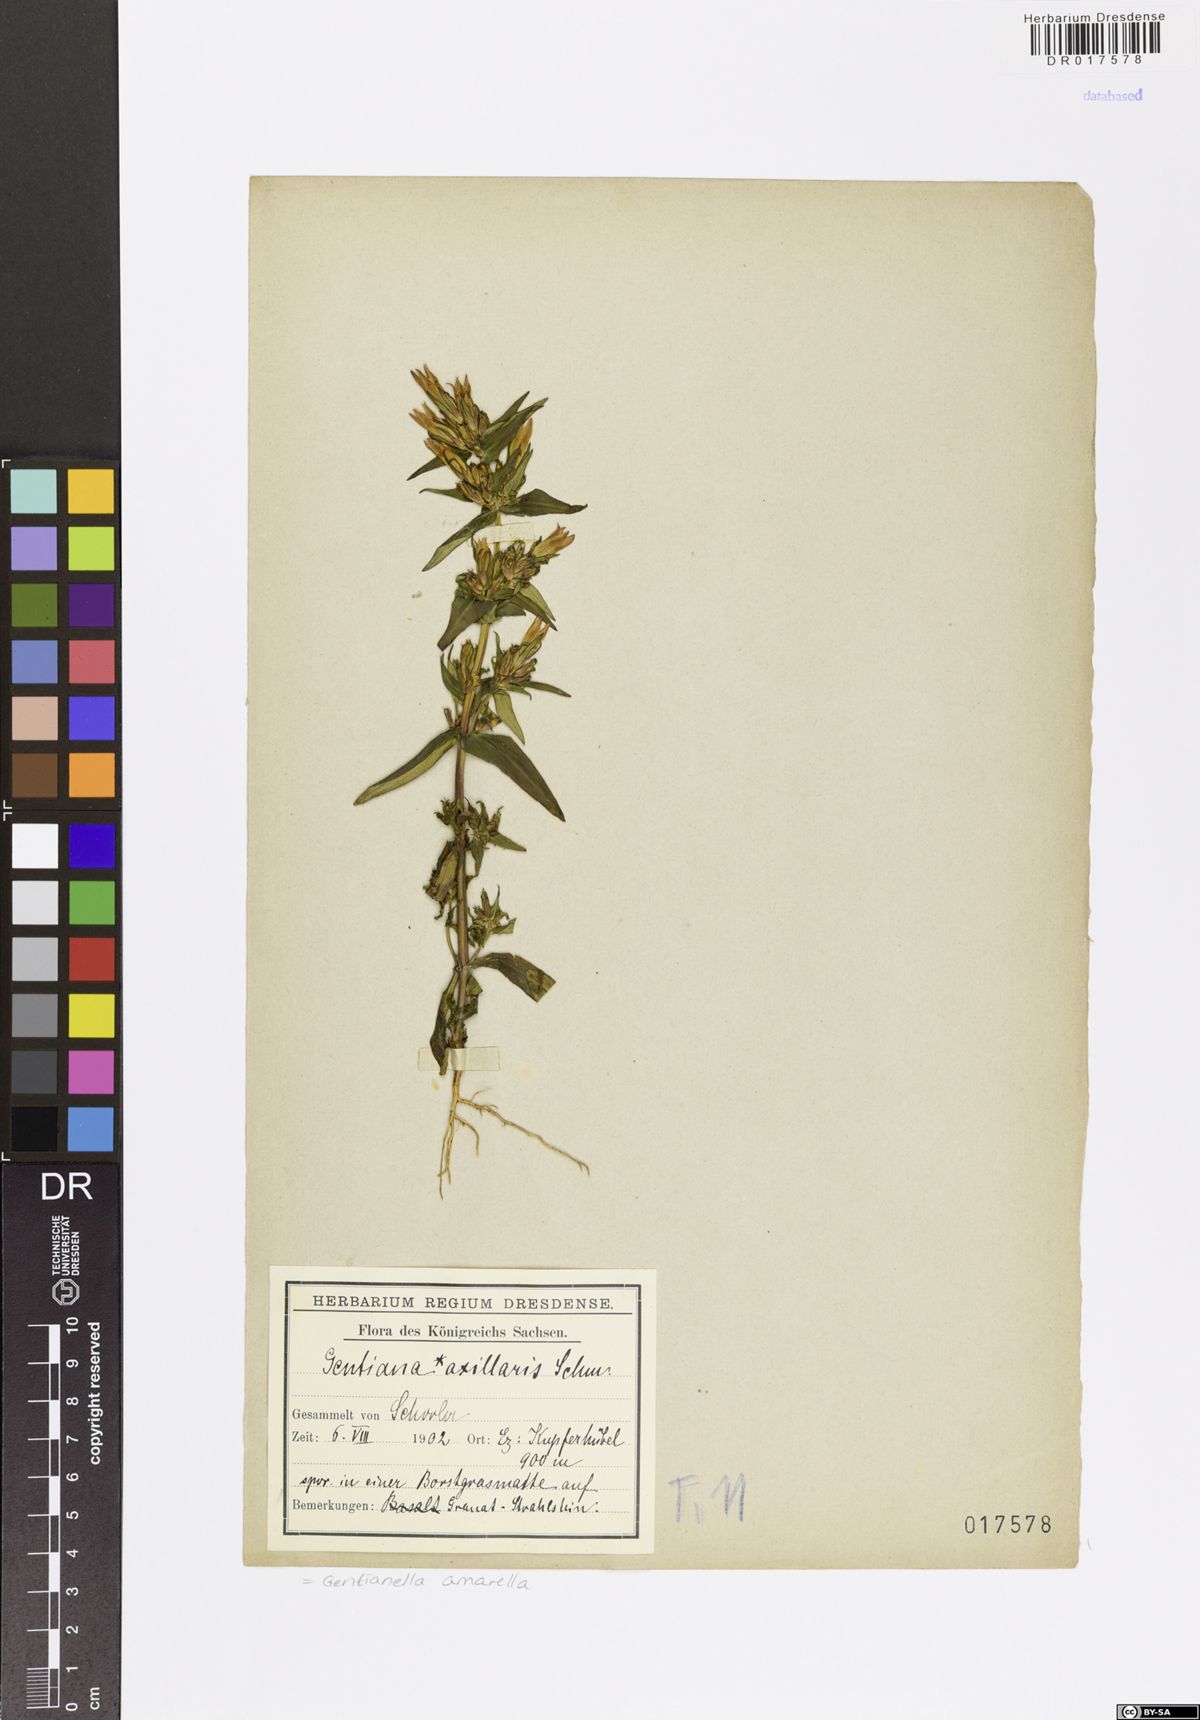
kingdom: Plantae
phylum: Tracheophyta
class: Magnoliopsida
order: Gentianales
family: Gentianaceae
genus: Gentianella
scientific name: Gentianella amarella
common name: Autumn gentian
